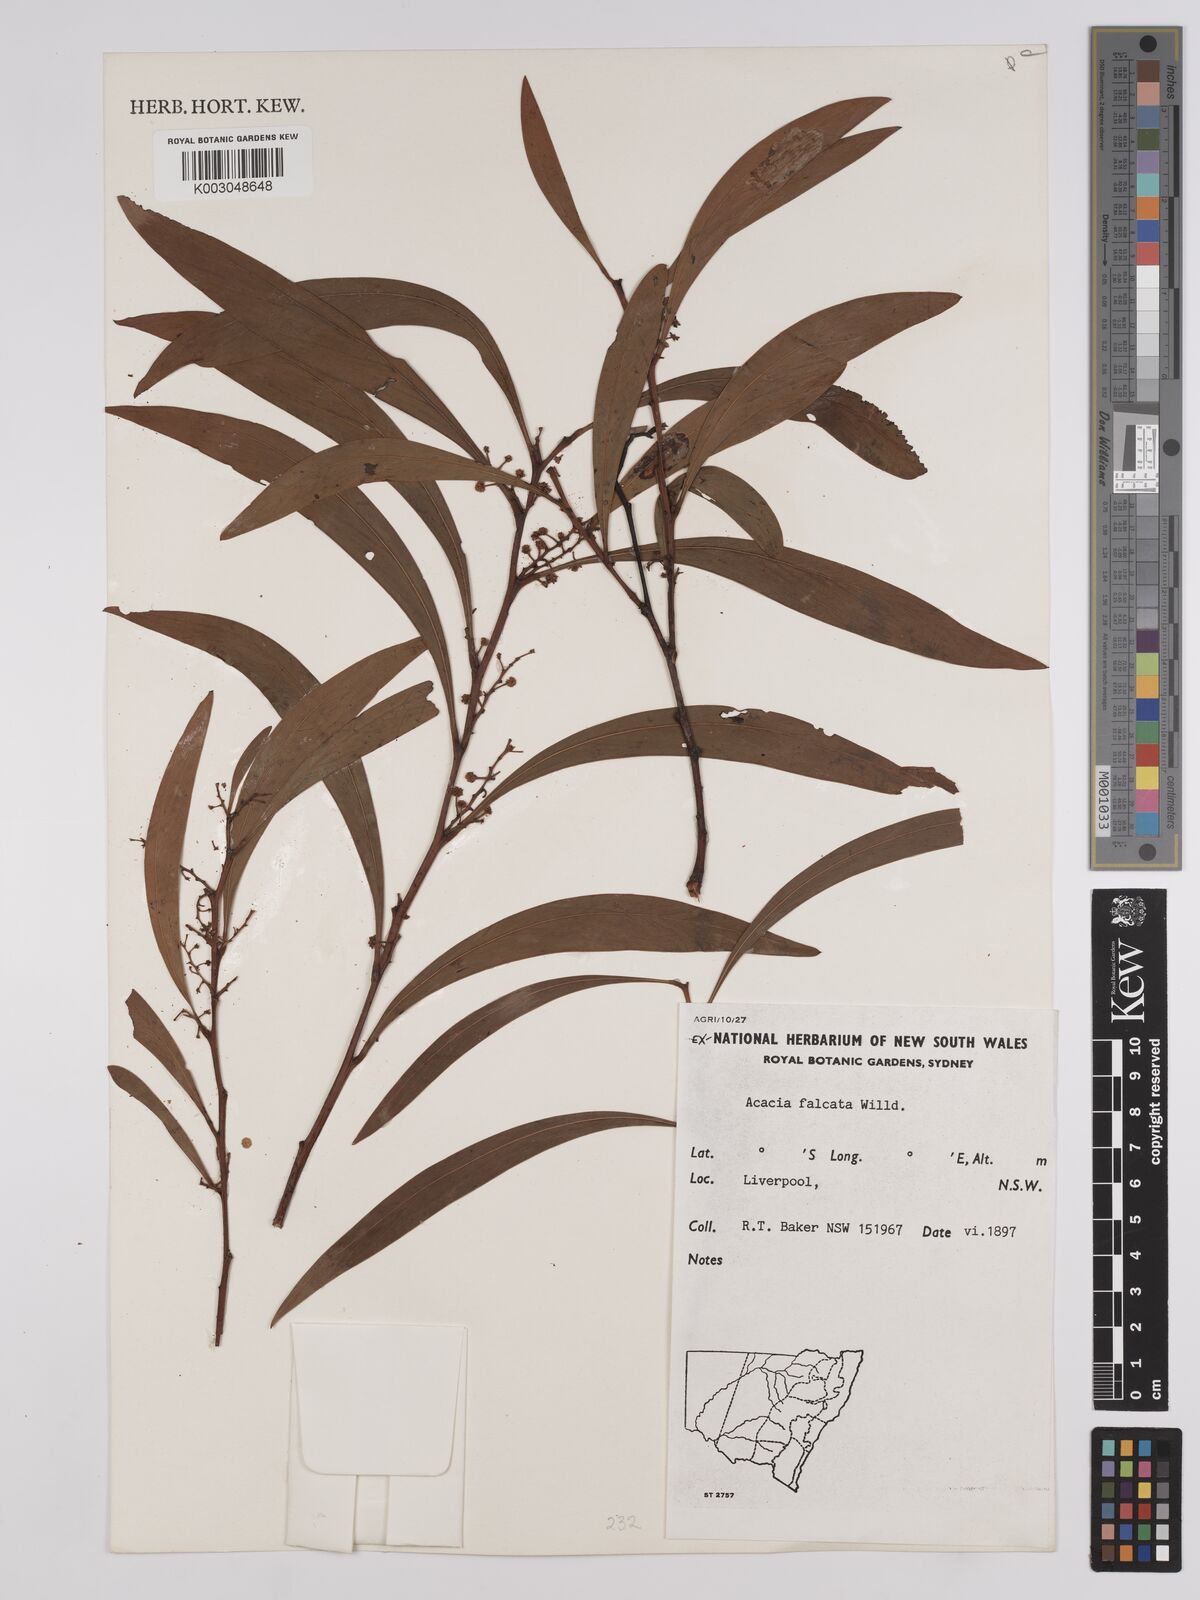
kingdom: Plantae
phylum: Tracheophyta
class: Magnoliopsida
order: Fabales
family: Fabaceae
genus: Acacia
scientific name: Acacia falcata
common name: Burra acacia
